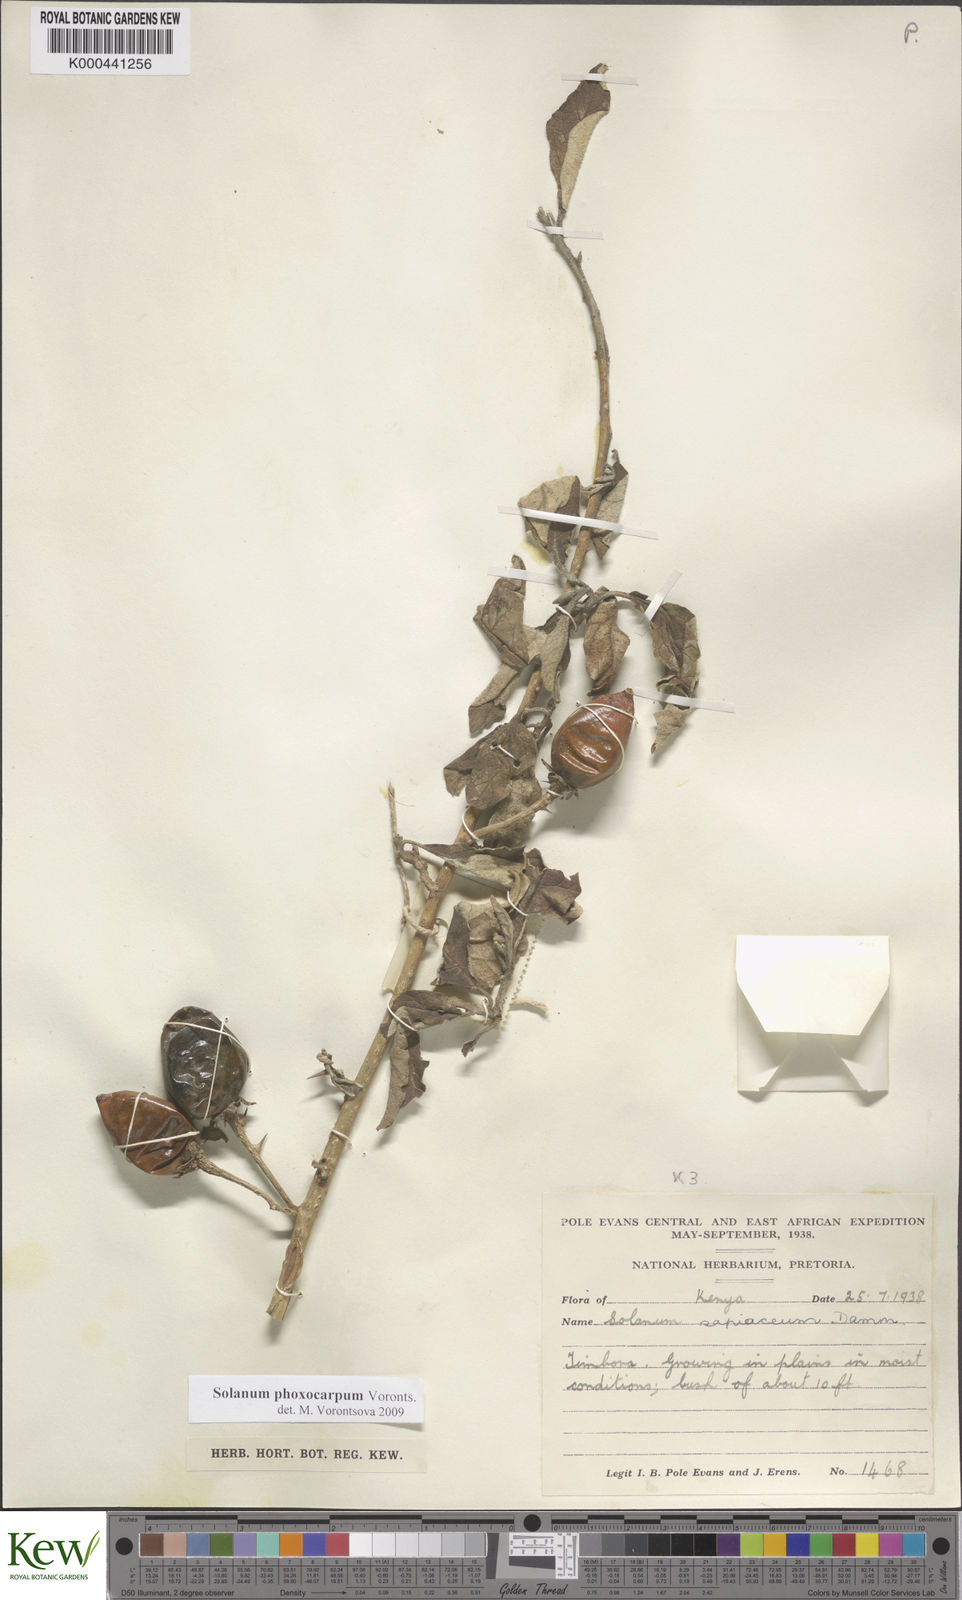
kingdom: Plantae
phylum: Tracheophyta
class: Magnoliopsida
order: Solanales
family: Solanaceae
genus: Solanum
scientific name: Solanum phoxocarpum
